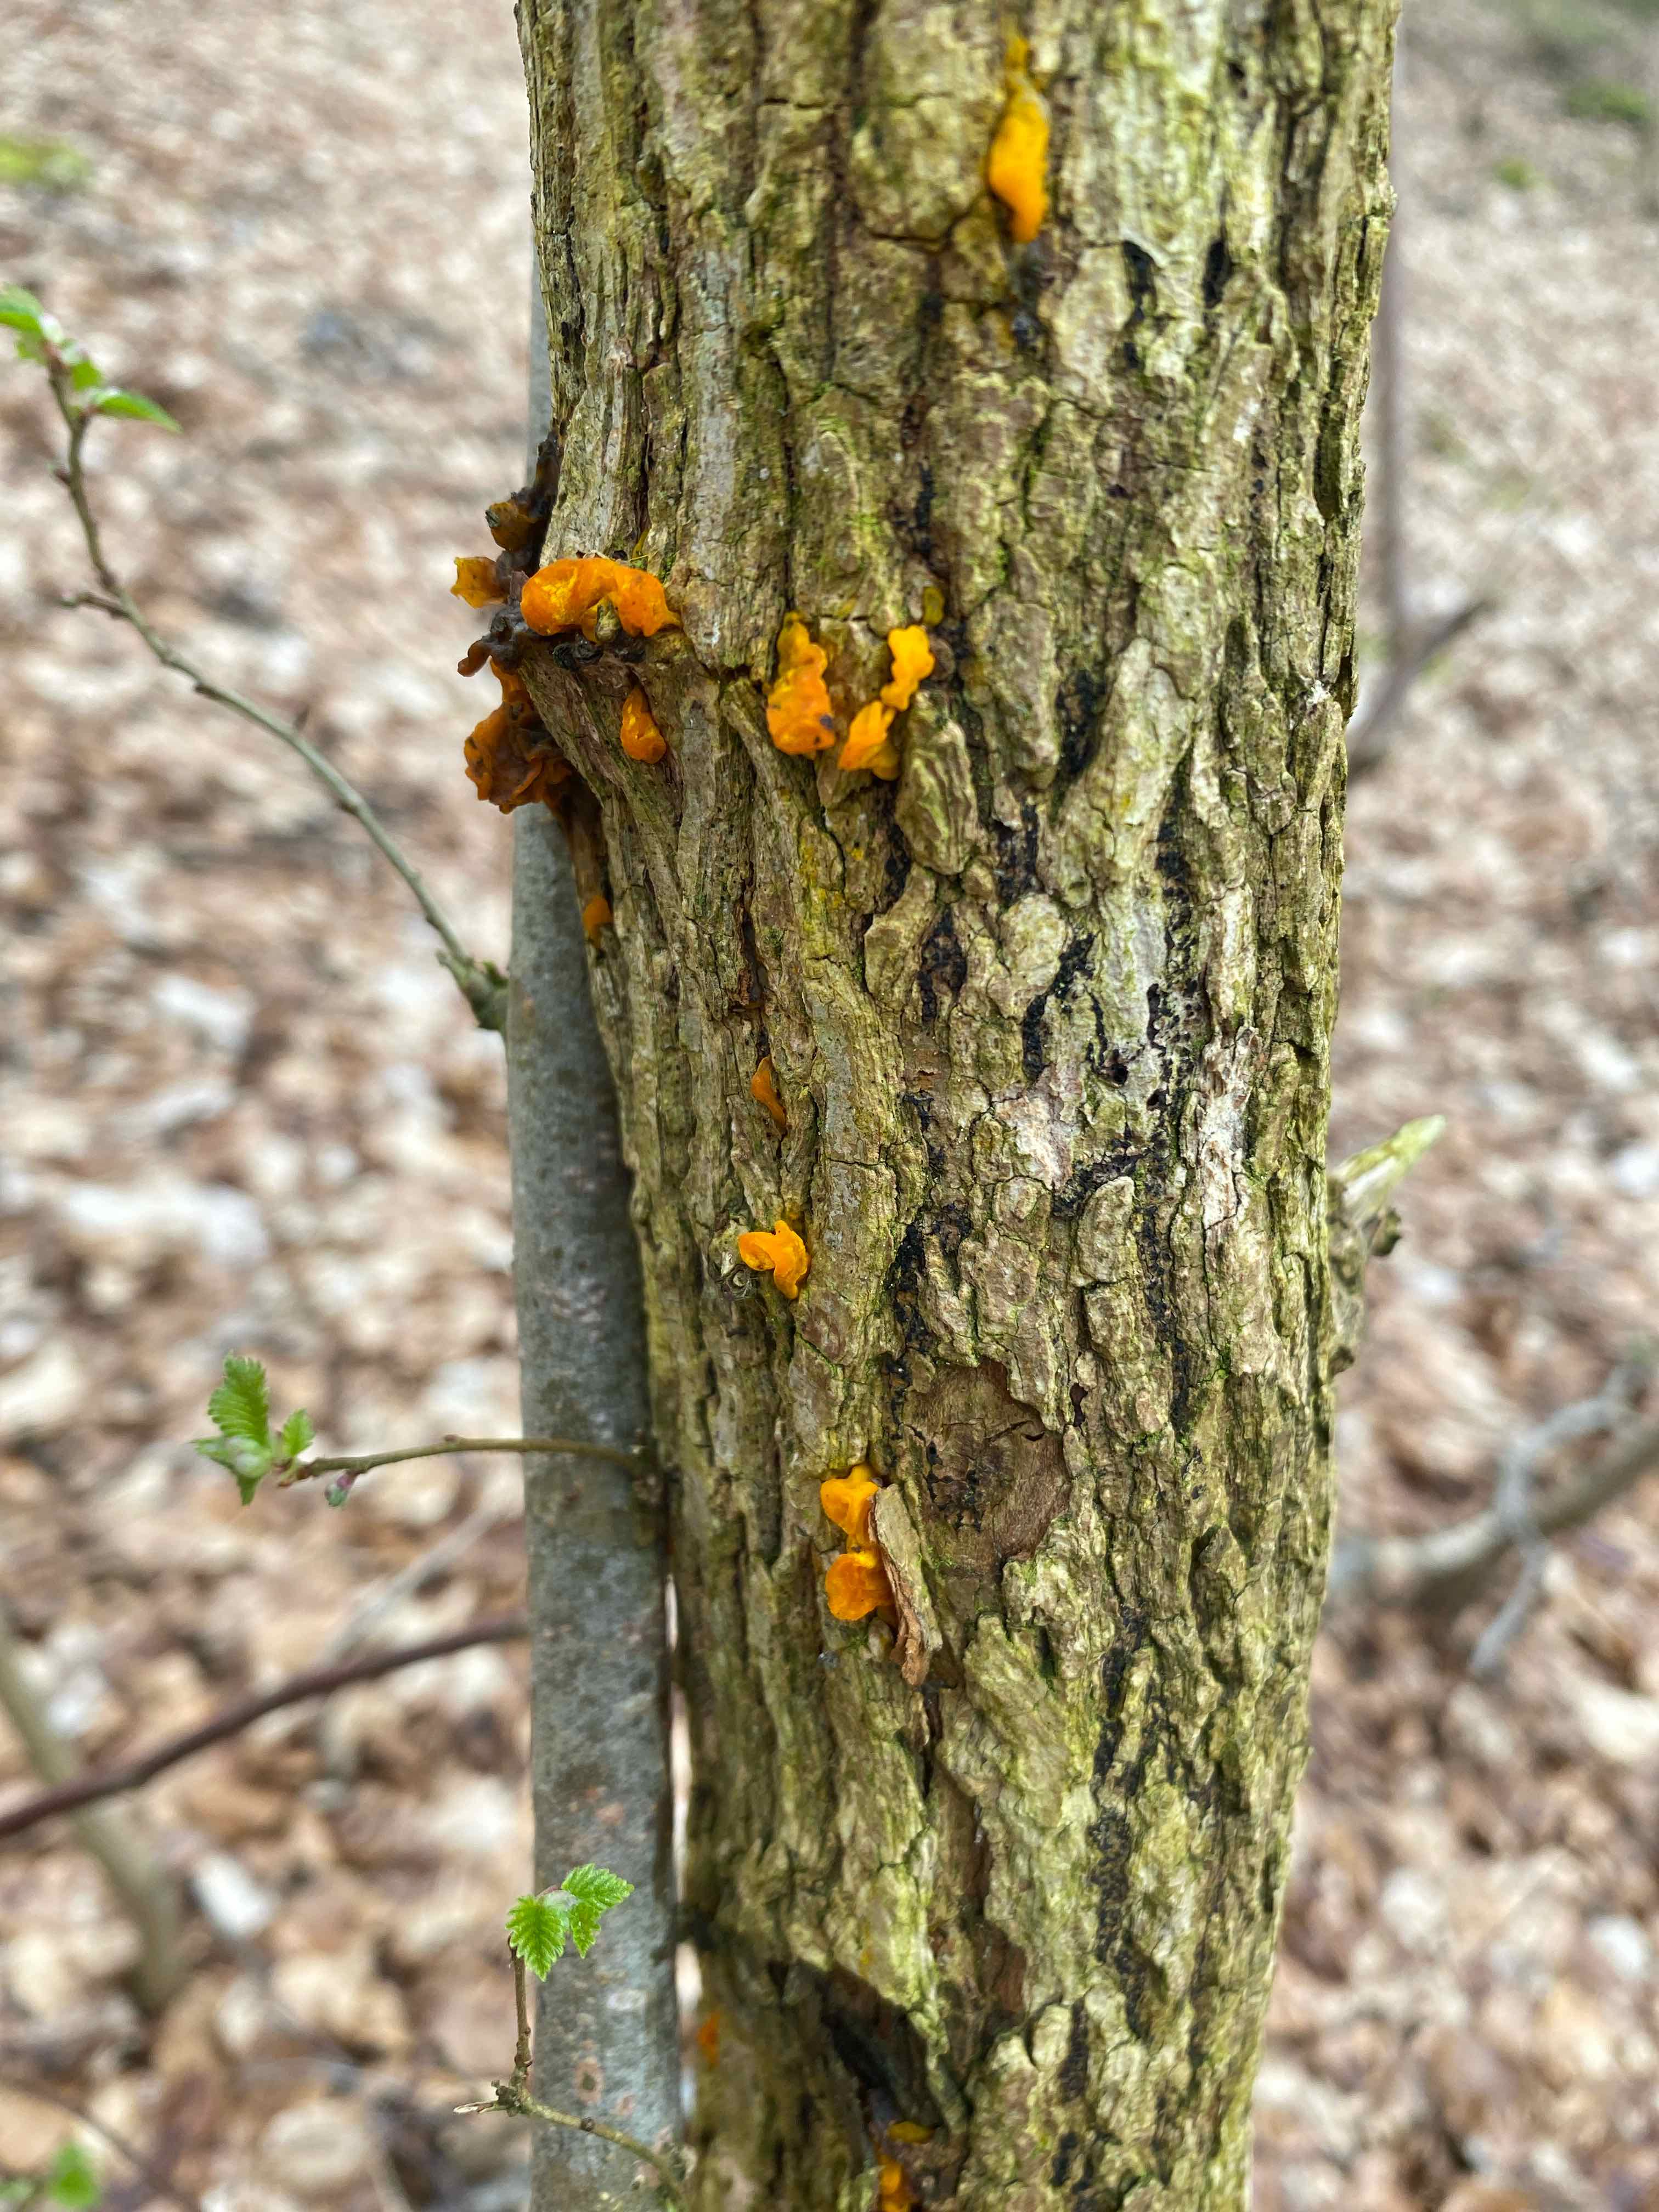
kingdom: Fungi
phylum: Basidiomycota
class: Tremellomycetes
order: Tremellales
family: Tremellaceae
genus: Tremella
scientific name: Tremella mesenterica
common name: gul bævresvamp
